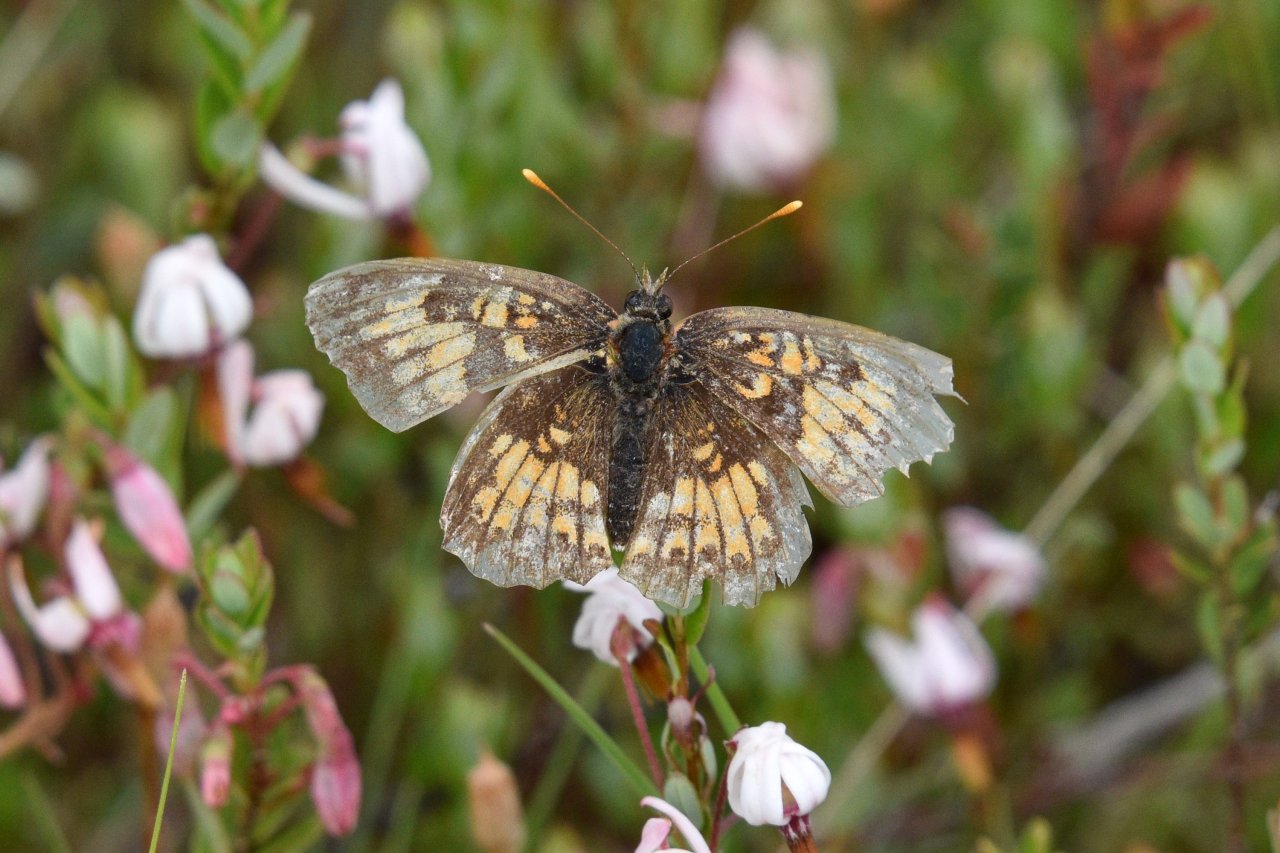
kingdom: Animalia
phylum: Arthropoda
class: Insecta
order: Lepidoptera
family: Nymphalidae
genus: Chlosyne
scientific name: Chlosyne harrisii
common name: Harris's Checkerspot
